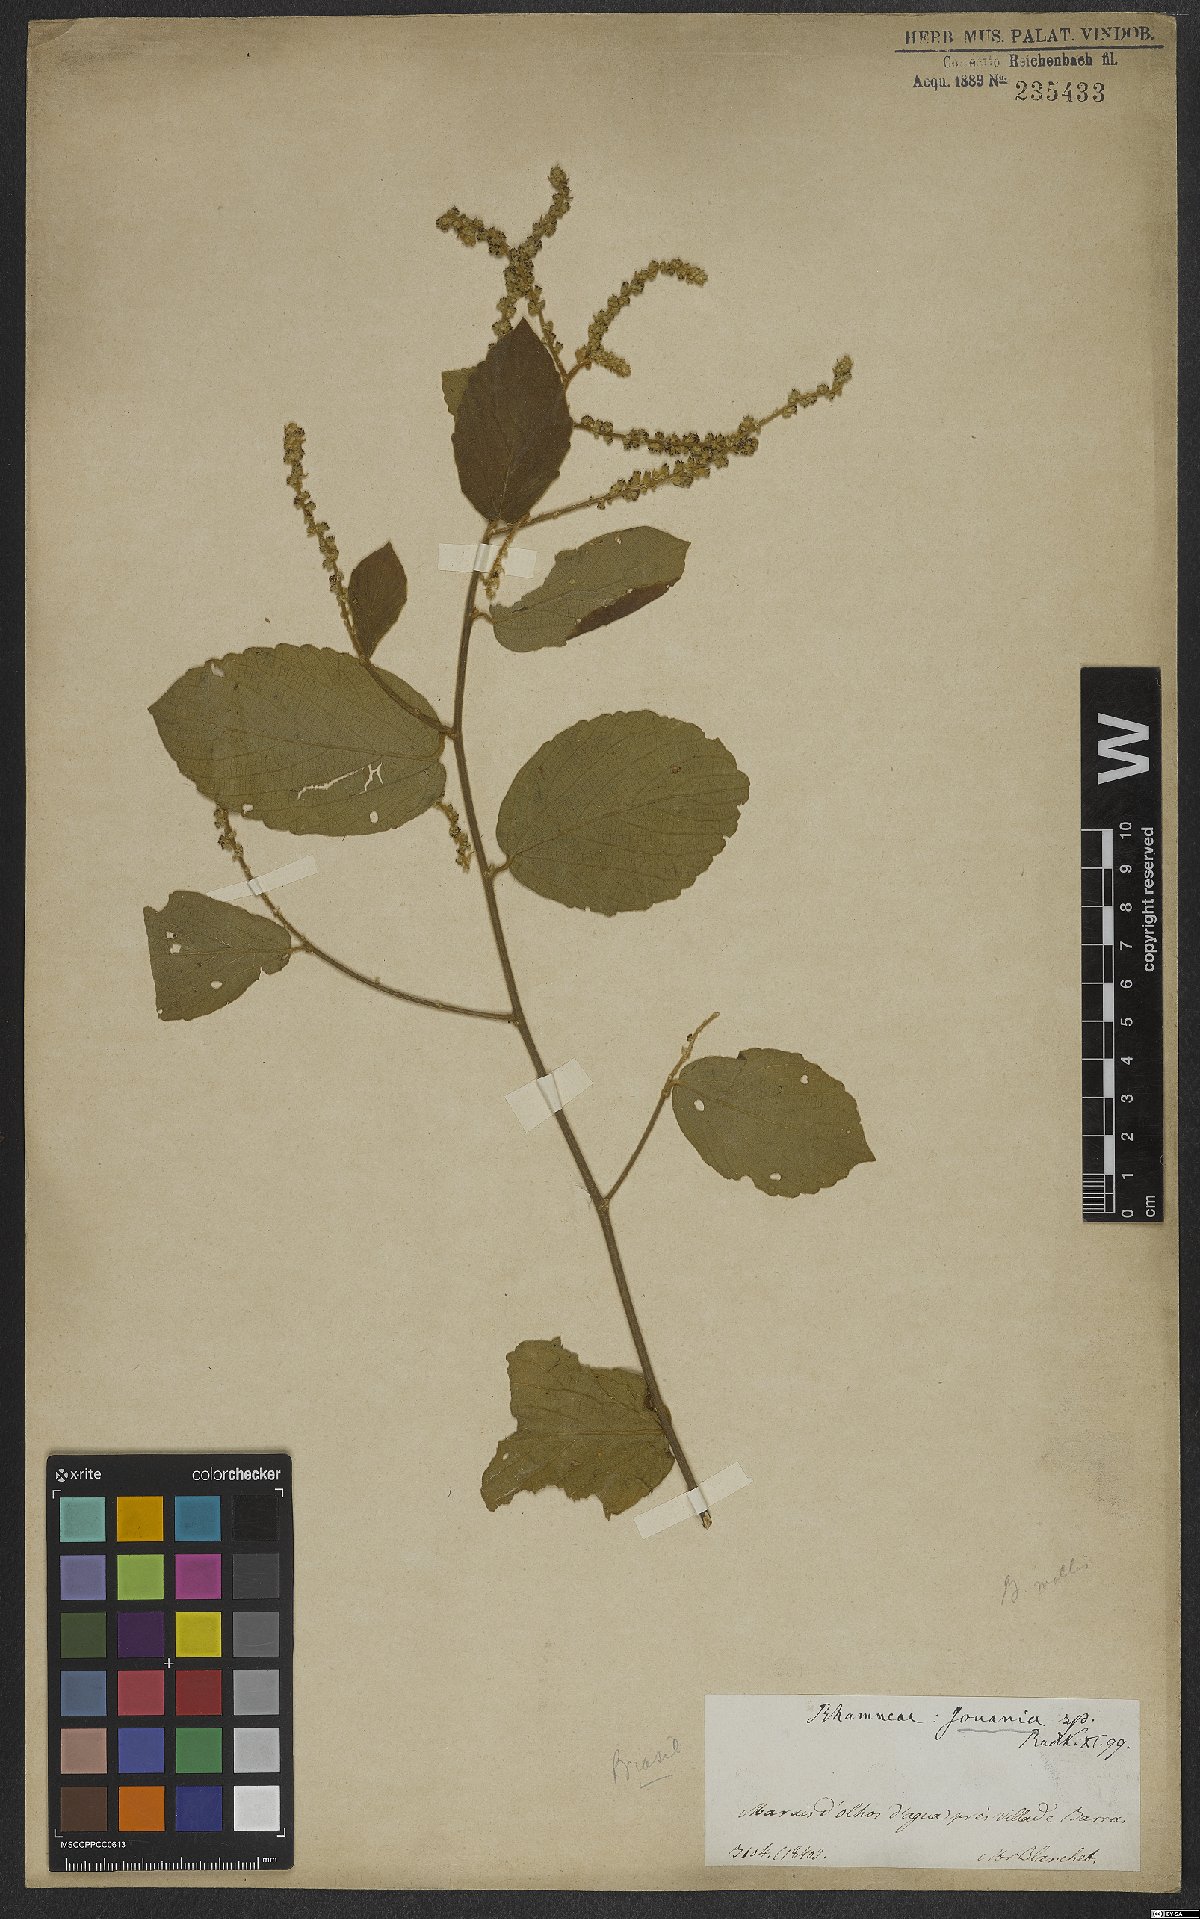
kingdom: Plantae
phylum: Tracheophyta
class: Magnoliopsida
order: Rosales
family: Rhamnaceae
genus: Gouania
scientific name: Gouania latifolia
